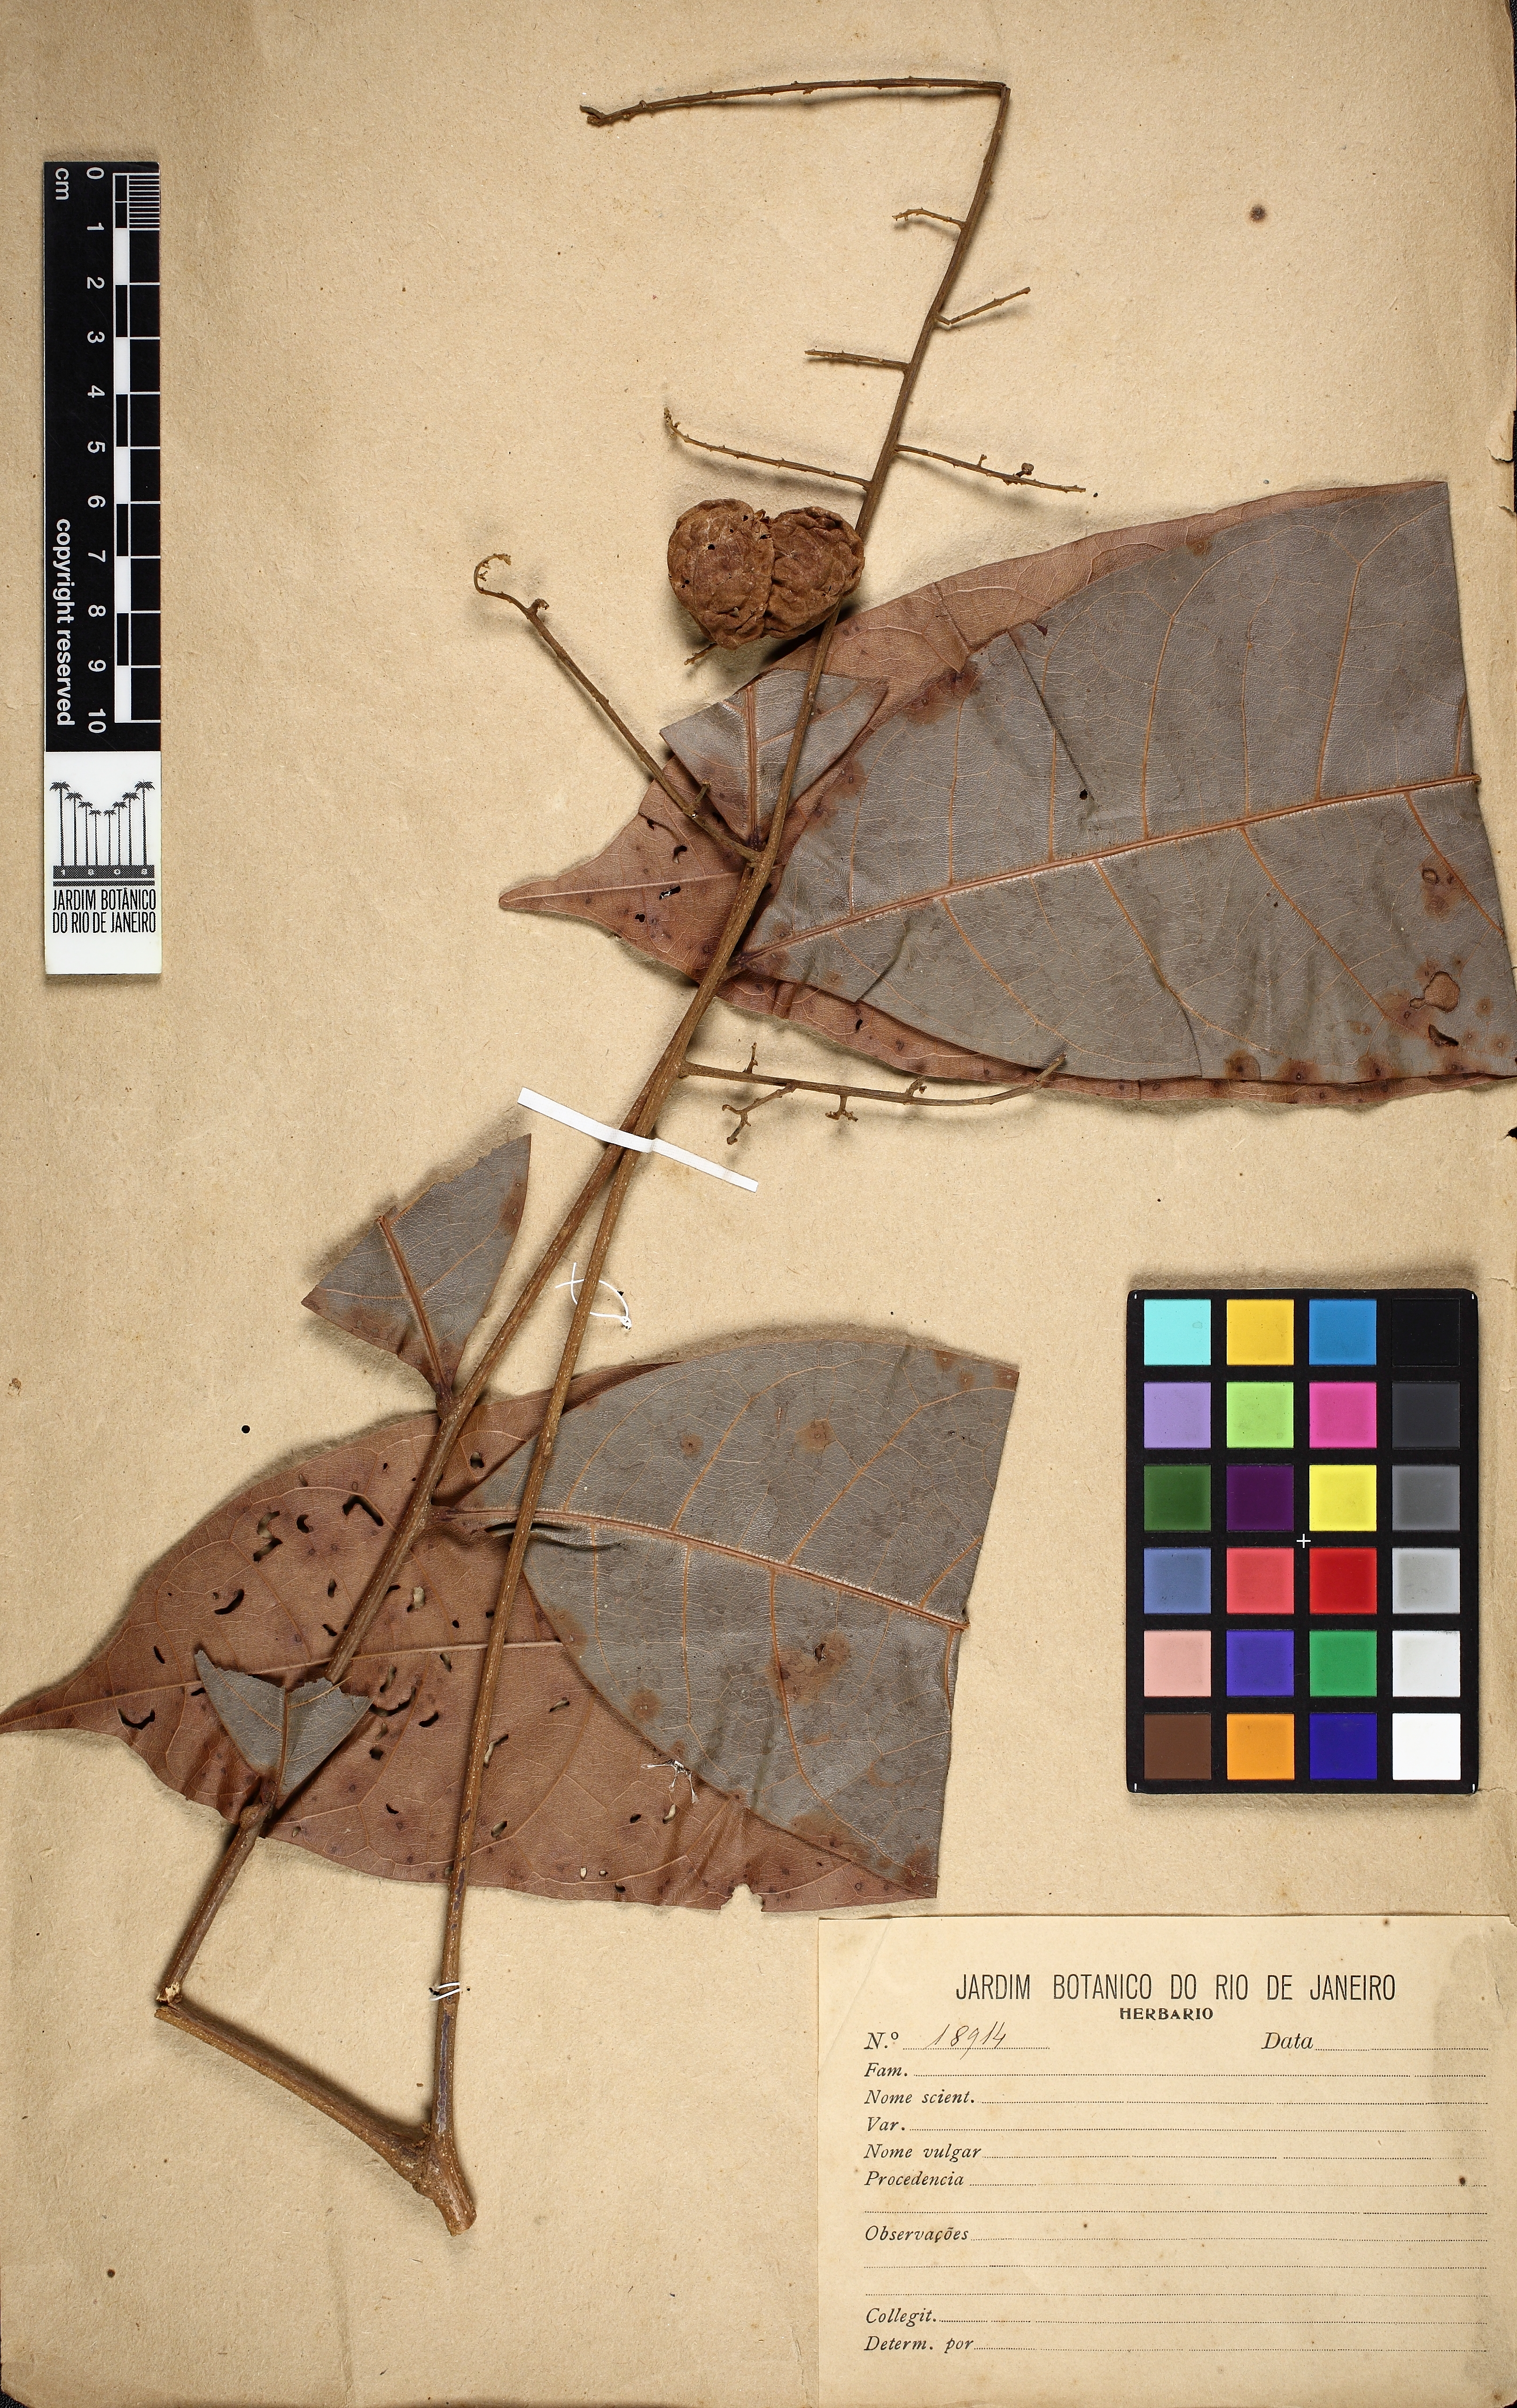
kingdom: Plantae
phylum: Tracheophyta
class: Magnoliopsida
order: Sapindales
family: Sapindaceae
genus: Porocystis
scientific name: Porocystis toulicioides
